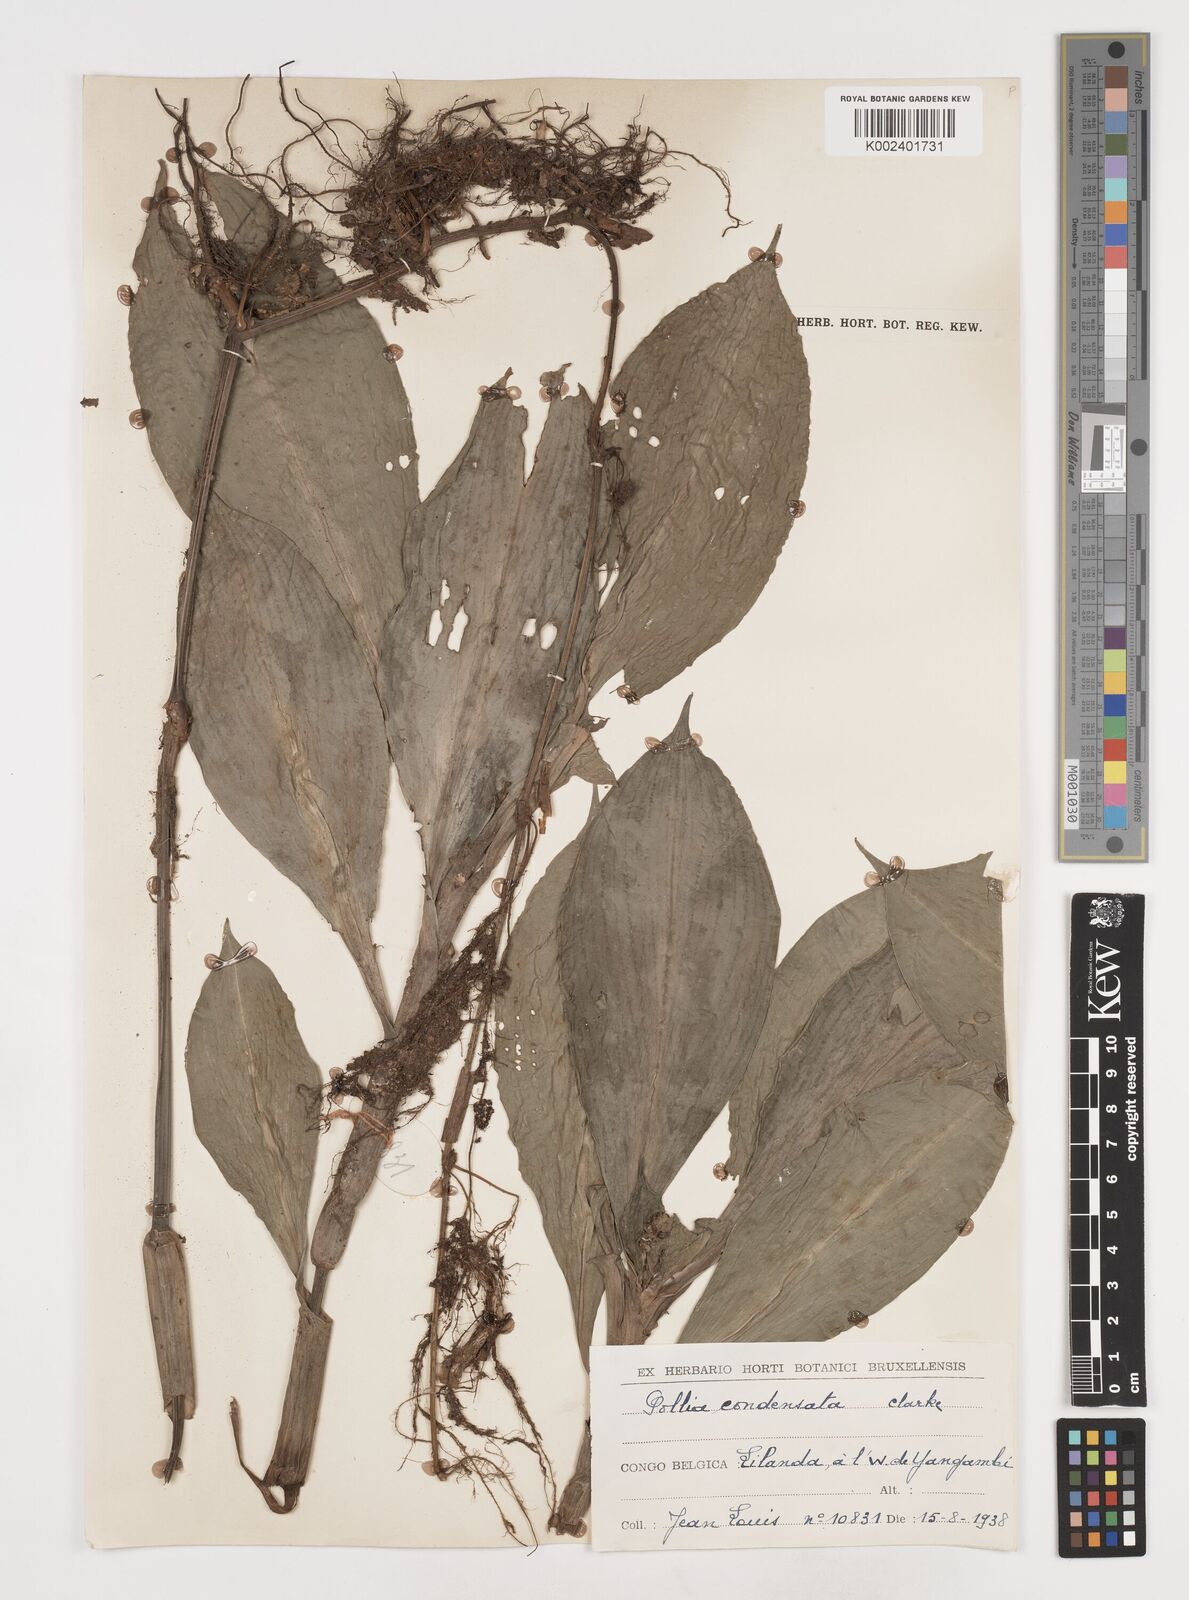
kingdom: Plantae
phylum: Tracheophyta
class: Liliopsida
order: Commelinales
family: Commelinaceae
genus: Pollia
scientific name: Pollia condensata
